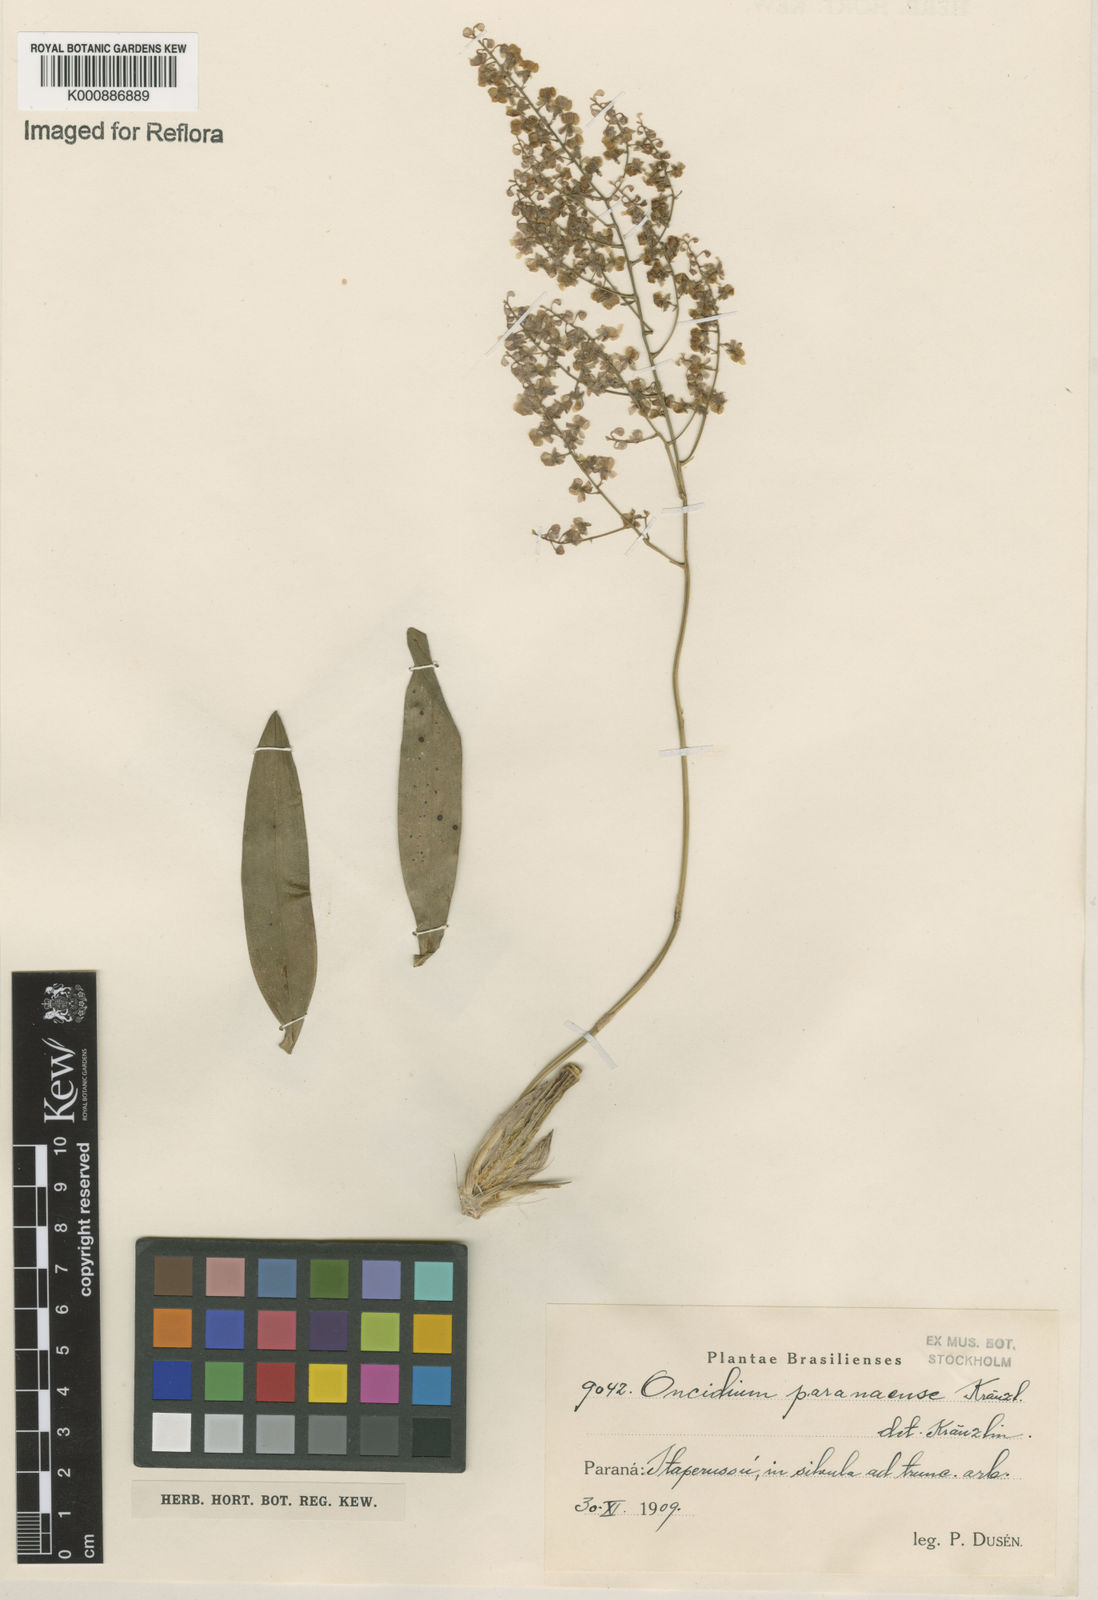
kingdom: Plantae
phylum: Tracheophyta
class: Liliopsida
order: Asparagales
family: Orchidaceae
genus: Gomesa
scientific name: Gomesa paranensoides
